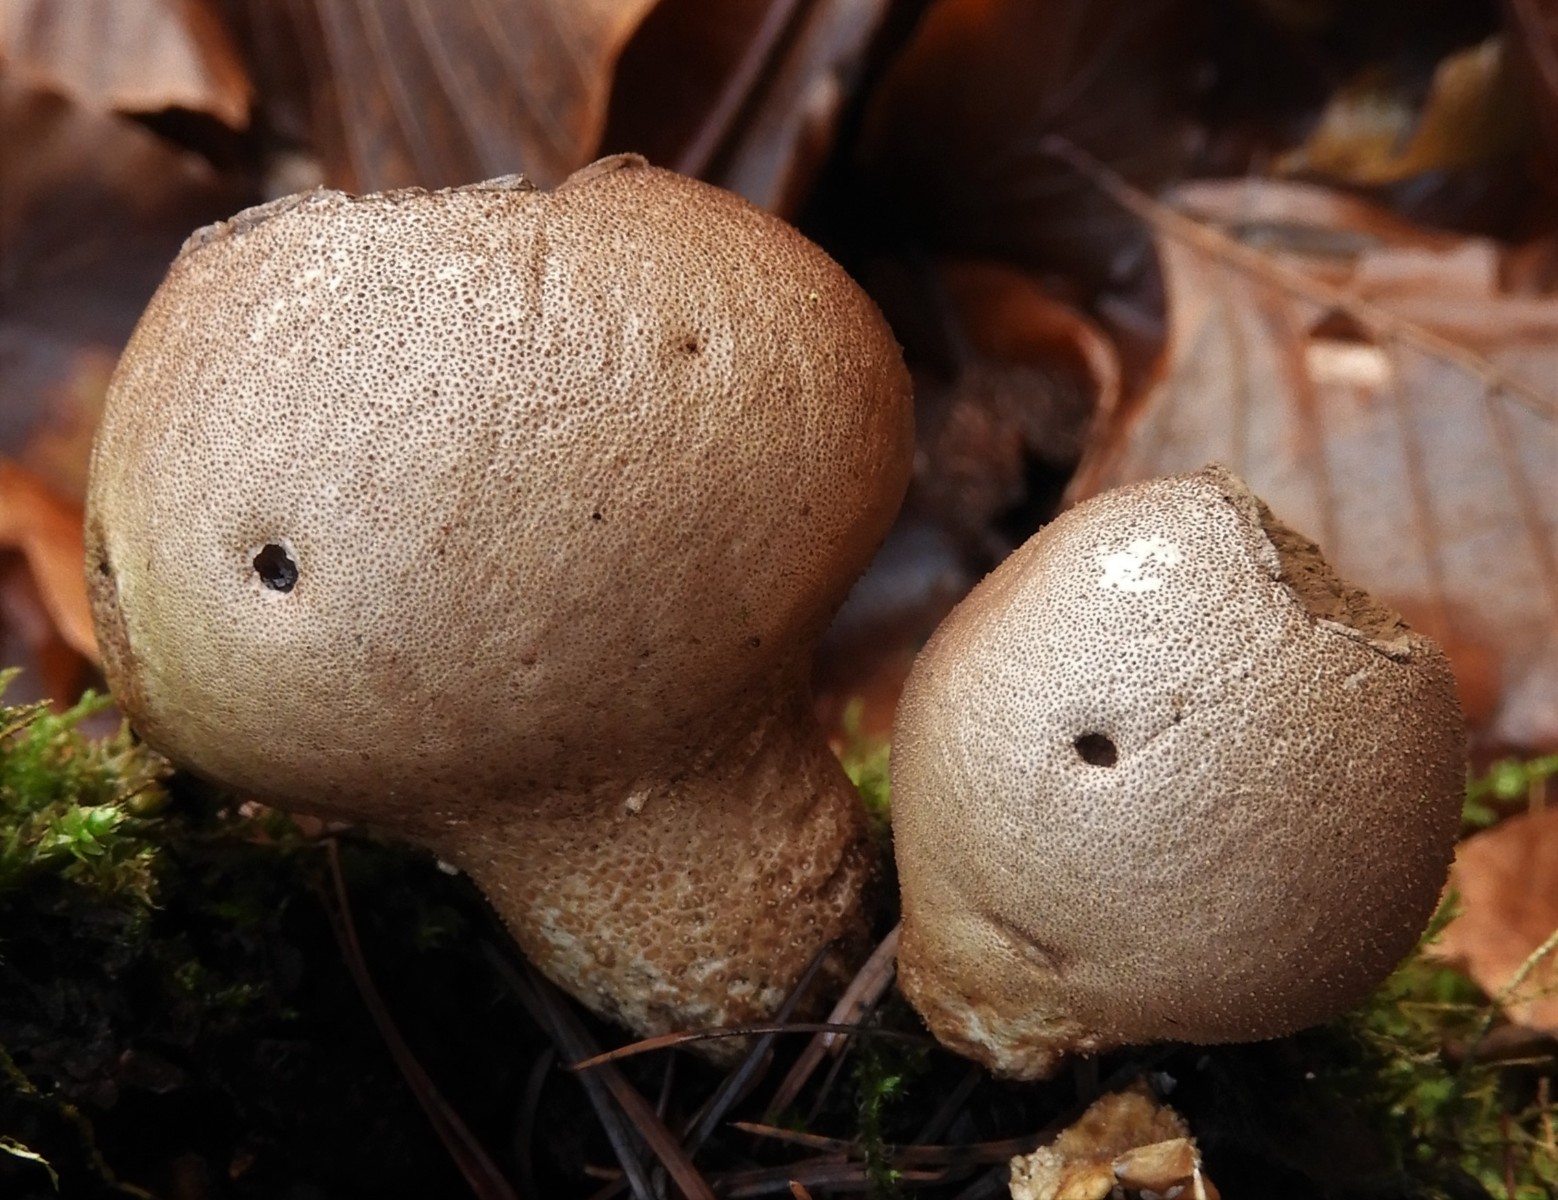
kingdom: Fungi
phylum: Basidiomycota
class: Agaricomycetes
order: Agaricales
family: Lycoperdaceae
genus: Apioperdon
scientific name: Apioperdon pyriforme
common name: pære-støvbold
